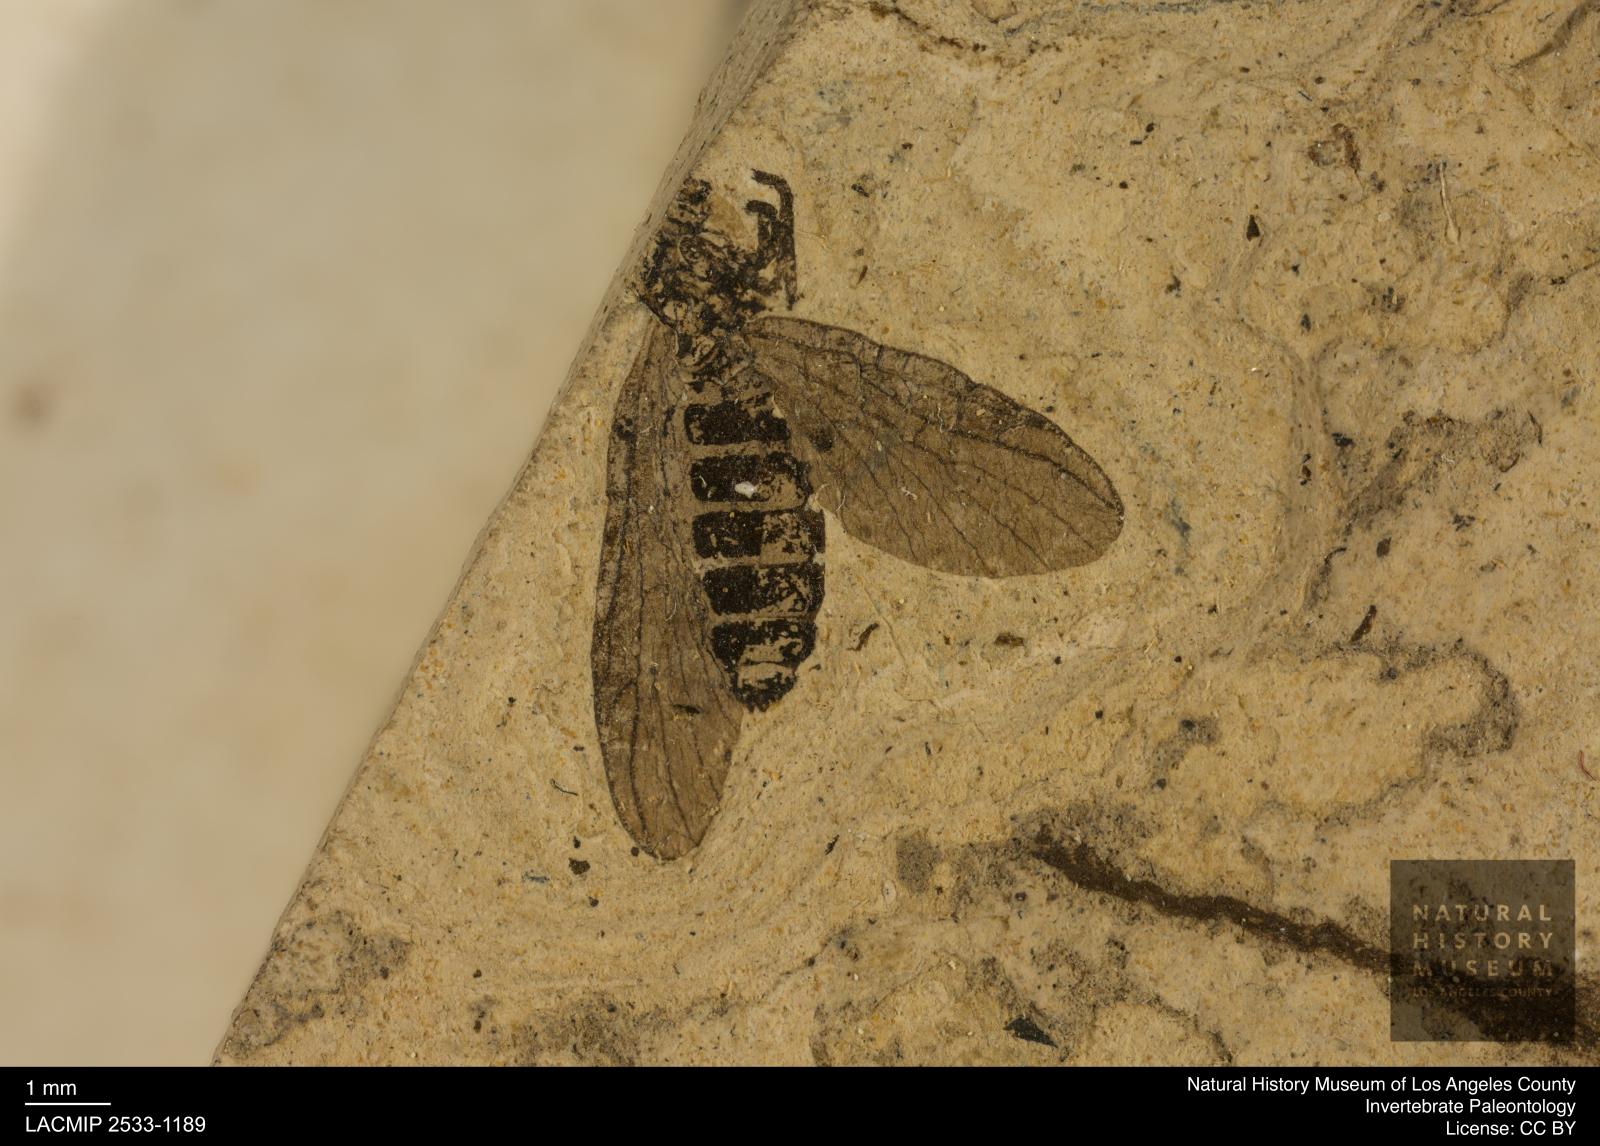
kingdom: Animalia
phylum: Arthropoda
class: Insecta
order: Diptera
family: Bibionidae
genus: Plecia
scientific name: Plecia stygia
